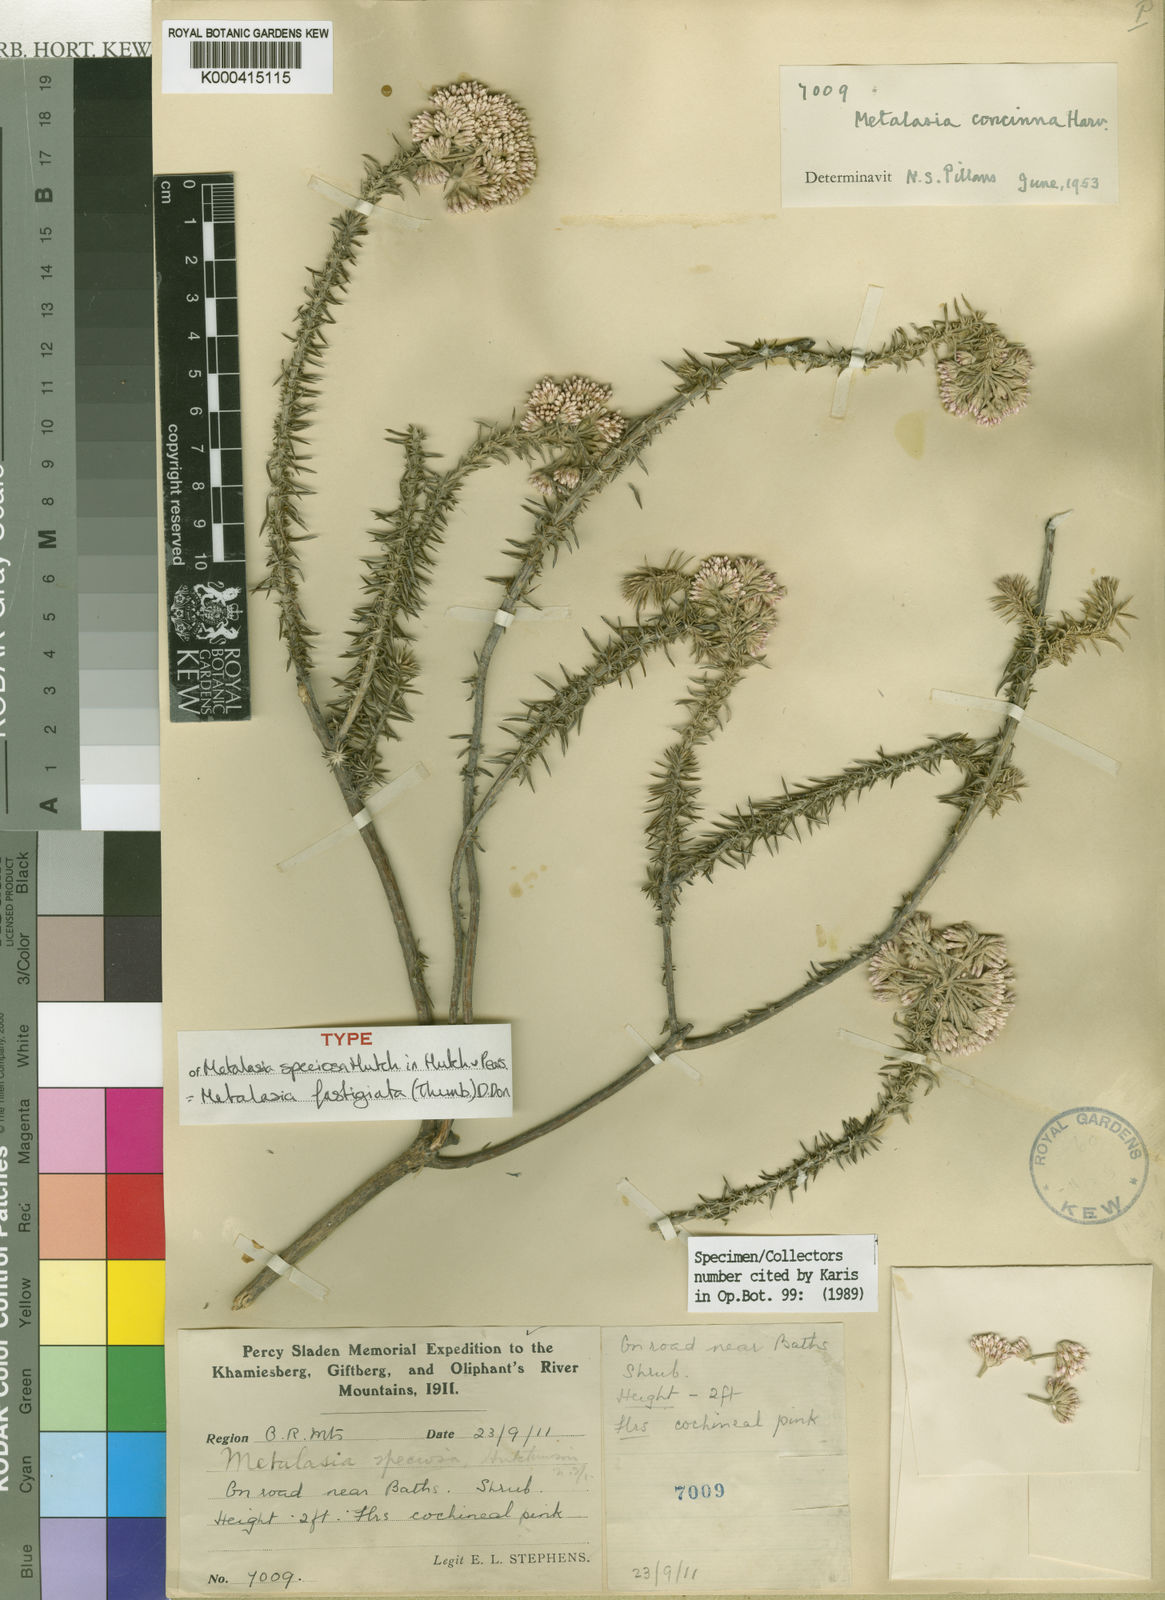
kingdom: Plantae
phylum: Tracheophyta
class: Magnoliopsida
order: Asterales
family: Asteraceae
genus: Metalasia
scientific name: Metalasia fastigiata
